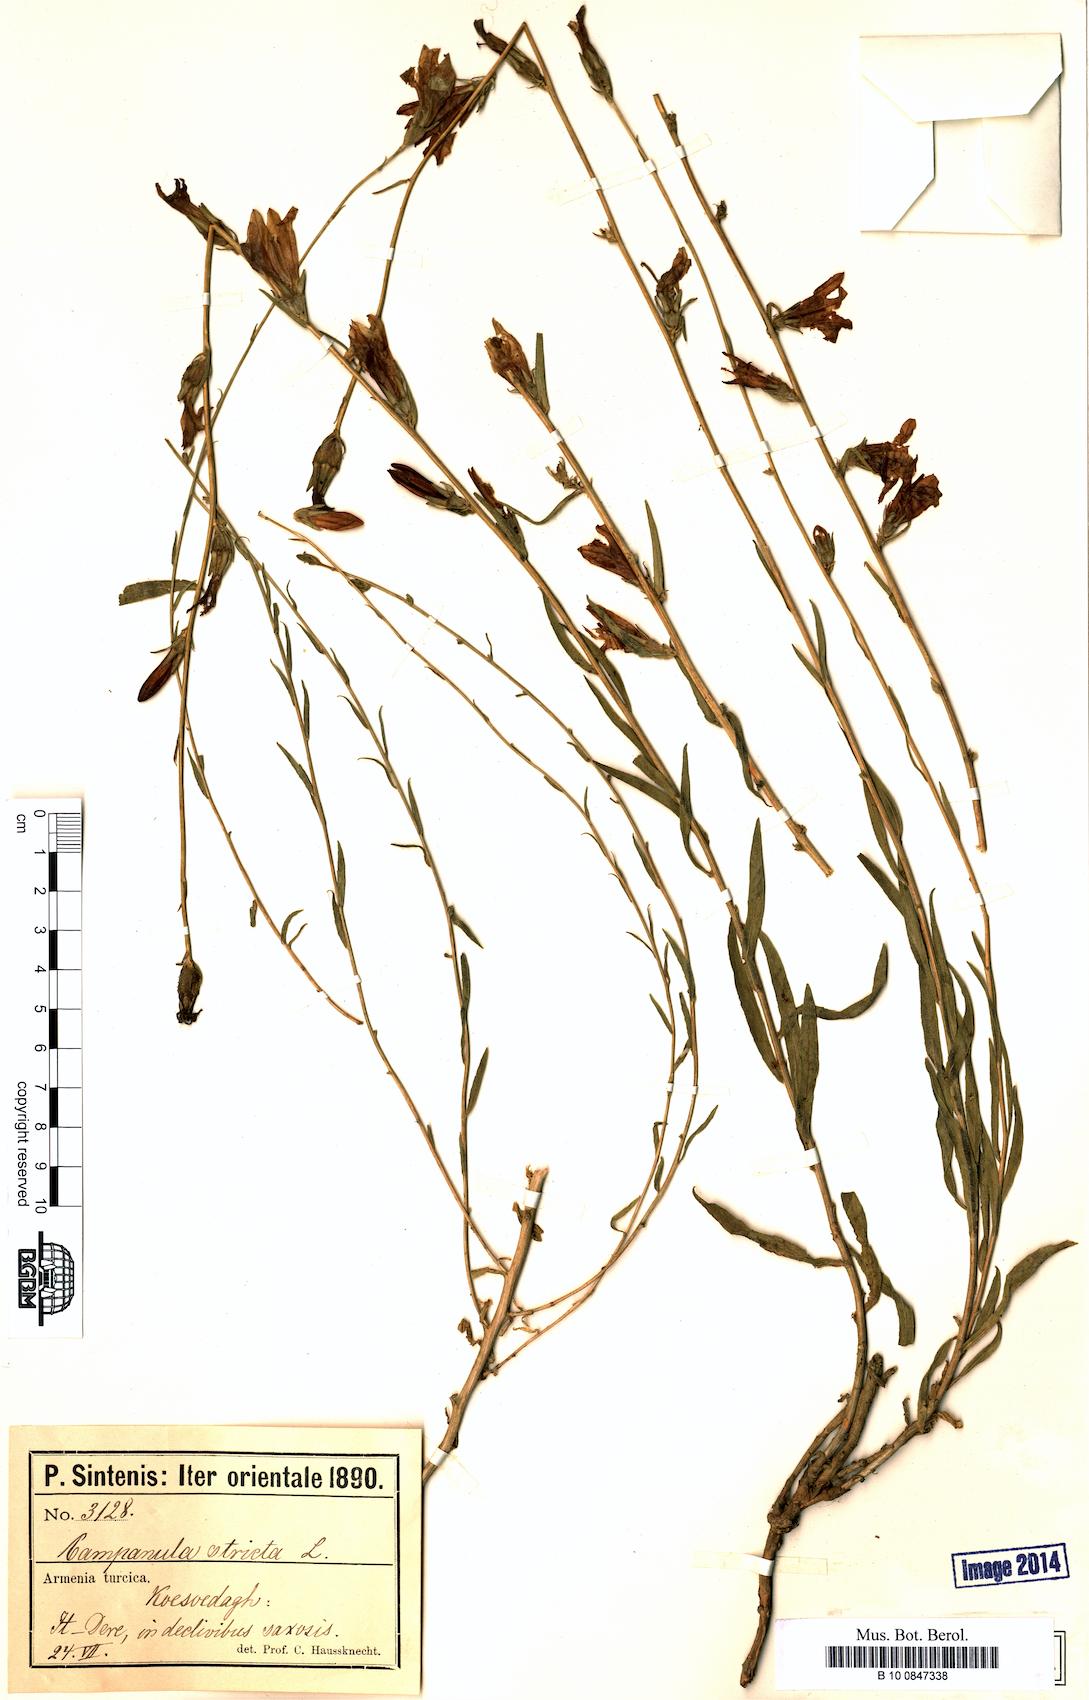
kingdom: Plantae
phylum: Tracheophyta
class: Magnoliopsida
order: Asterales
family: Campanulaceae
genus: Campanula
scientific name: Campanula stricta
